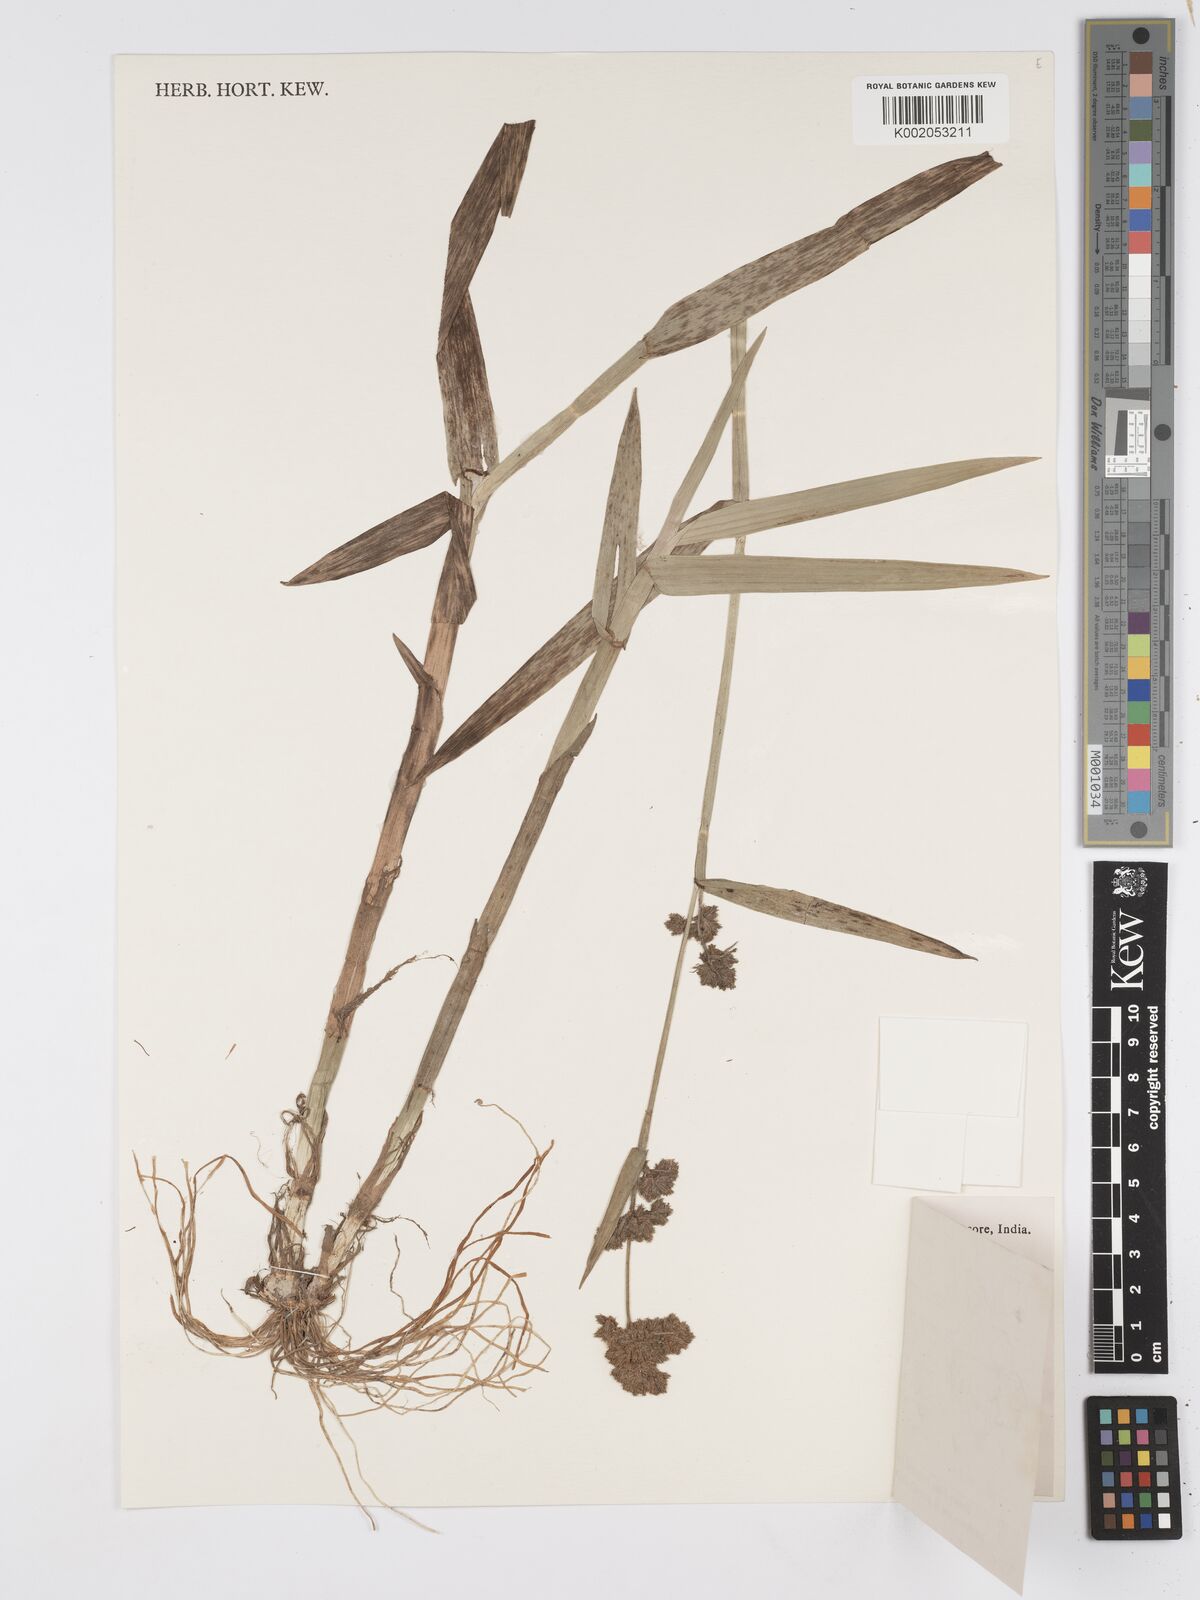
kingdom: Plantae
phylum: Tracheophyta
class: Liliopsida
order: Poales
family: Cyperaceae
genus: Fuirena
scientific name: Fuirena umbellata
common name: Yefen
